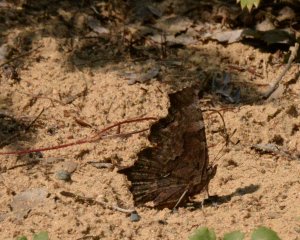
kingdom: Animalia
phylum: Arthropoda
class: Insecta
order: Lepidoptera
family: Nymphalidae
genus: Polygonia
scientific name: Polygonia faunus
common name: Green Comma
